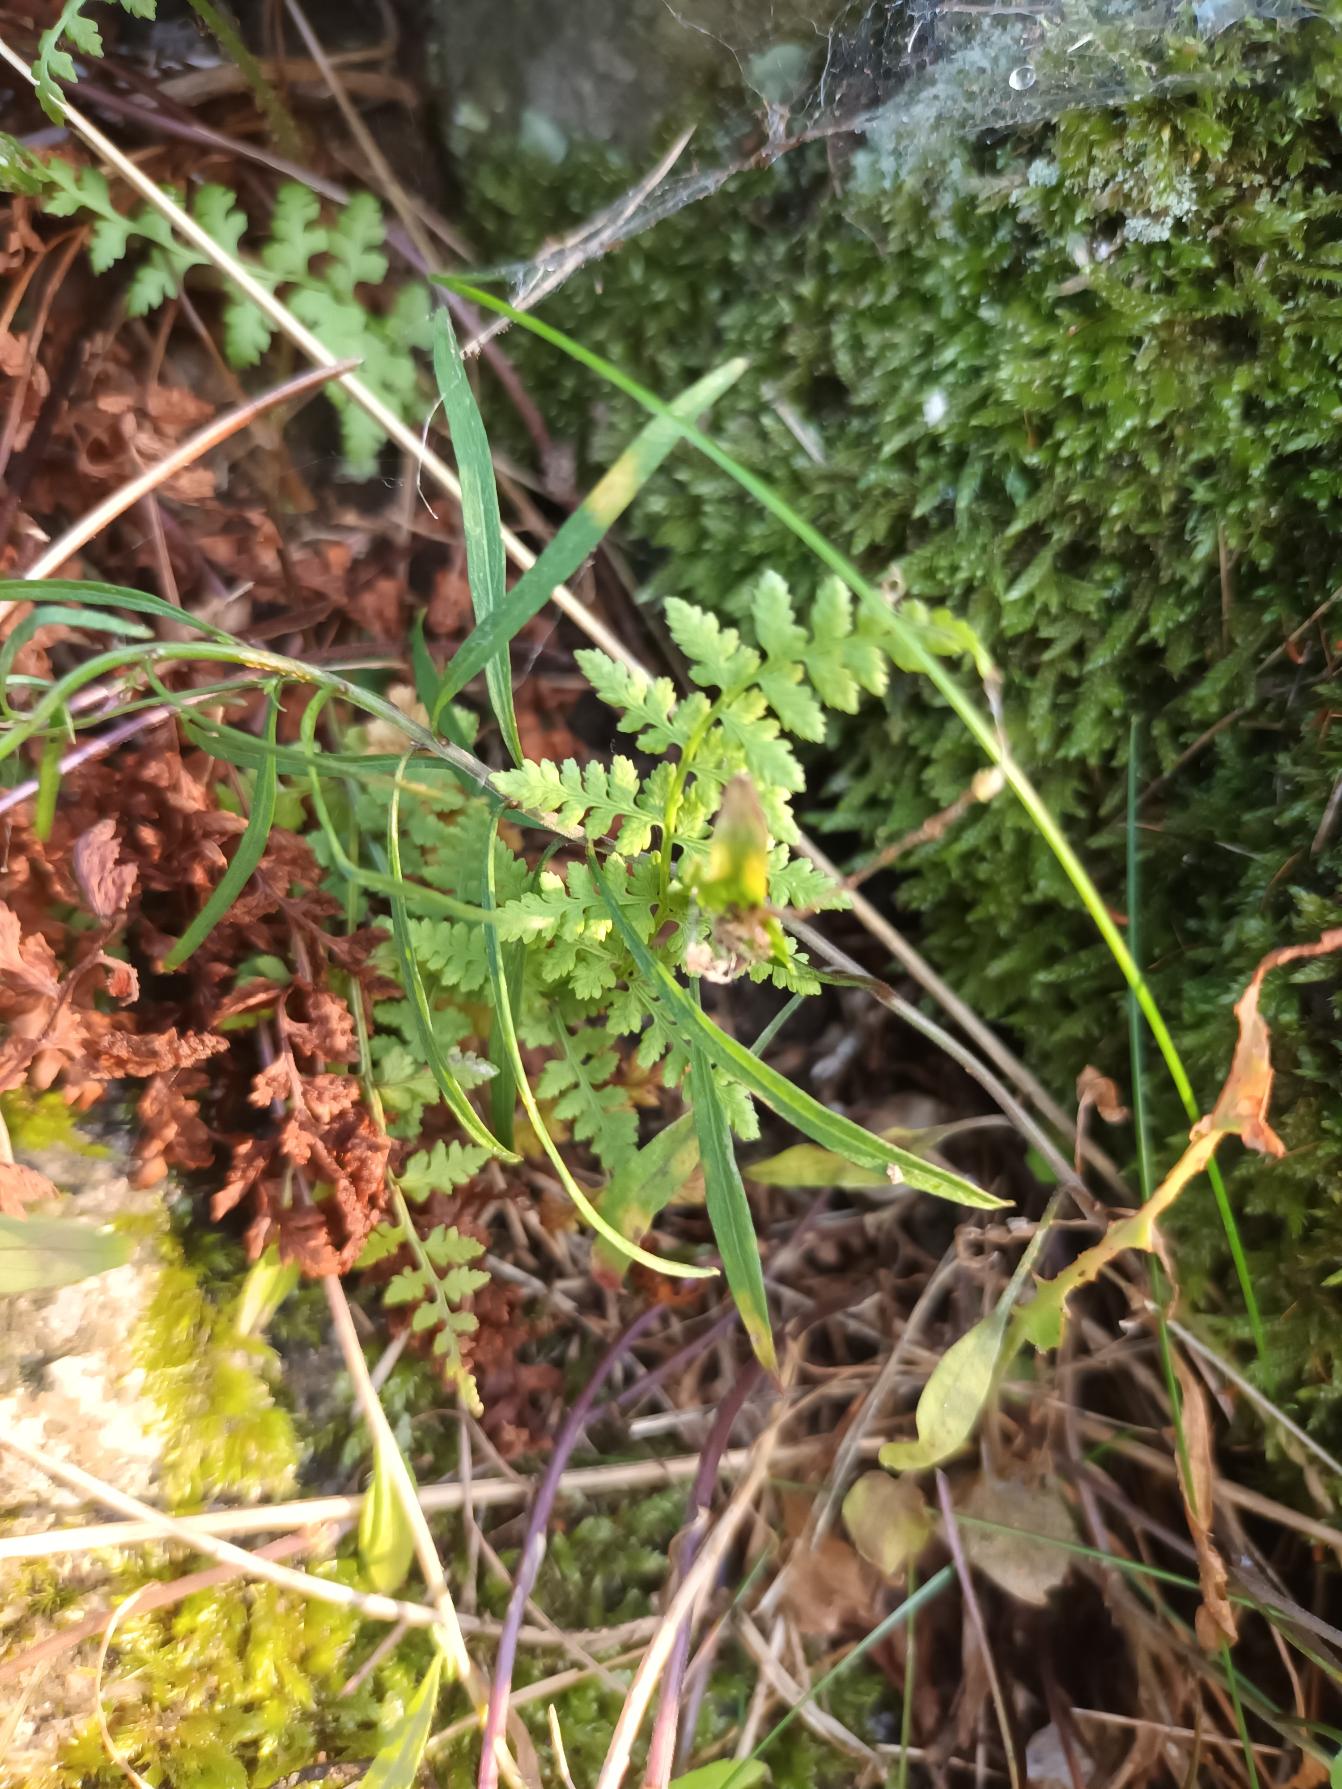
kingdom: Plantae
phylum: Tracheophyta
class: Polypodiopsida
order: Polypodiales
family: Cystopteridaceae
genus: Cystopteris
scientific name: Cystopteris fragilis
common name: Bægerbregne
